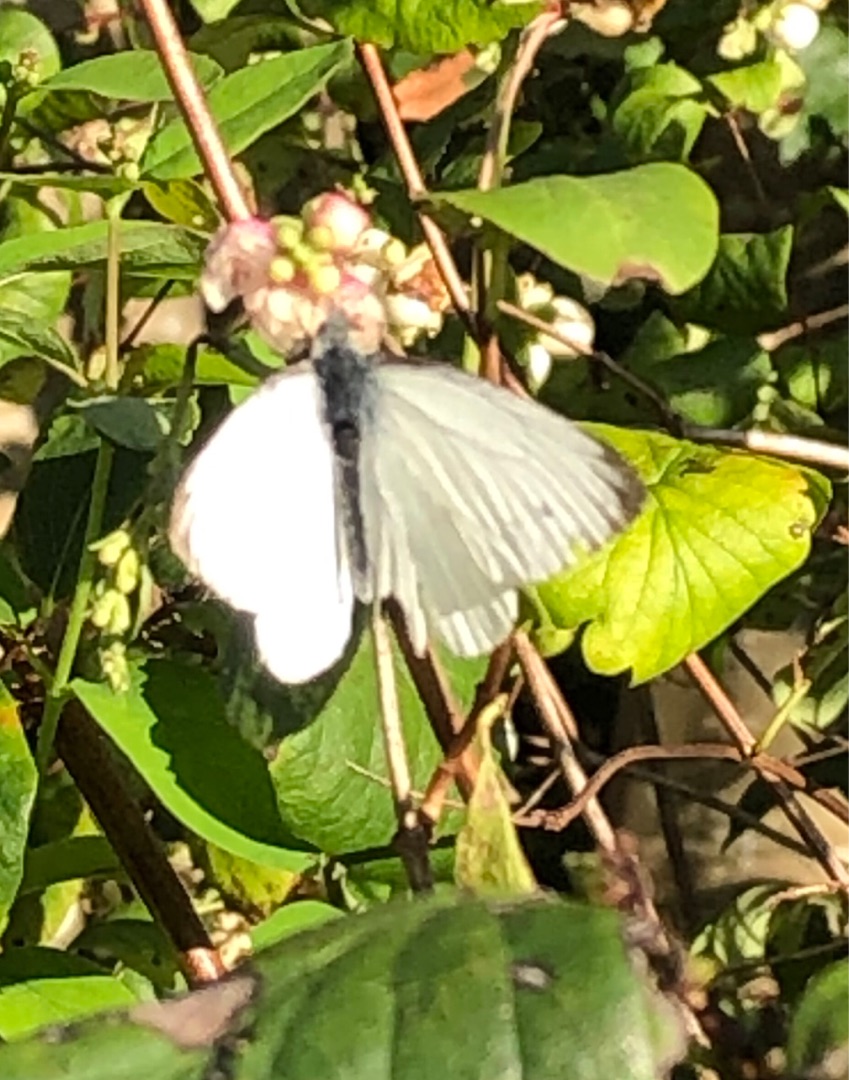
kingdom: Animalia
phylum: Arthropoda
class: Insecta
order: Lepidoptera
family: Pieridae
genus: Pieris
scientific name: Pieris napi
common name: Grønåret kålsommerfugl
